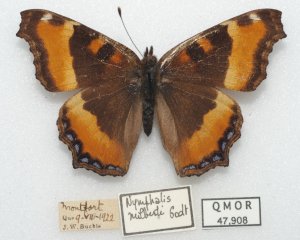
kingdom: Animalia
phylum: Arthropoda
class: Insecta
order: Lepidoptera
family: Nymphalidae
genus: Aglais
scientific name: Aglais milberti
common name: Milbert's Tortoiseshell
